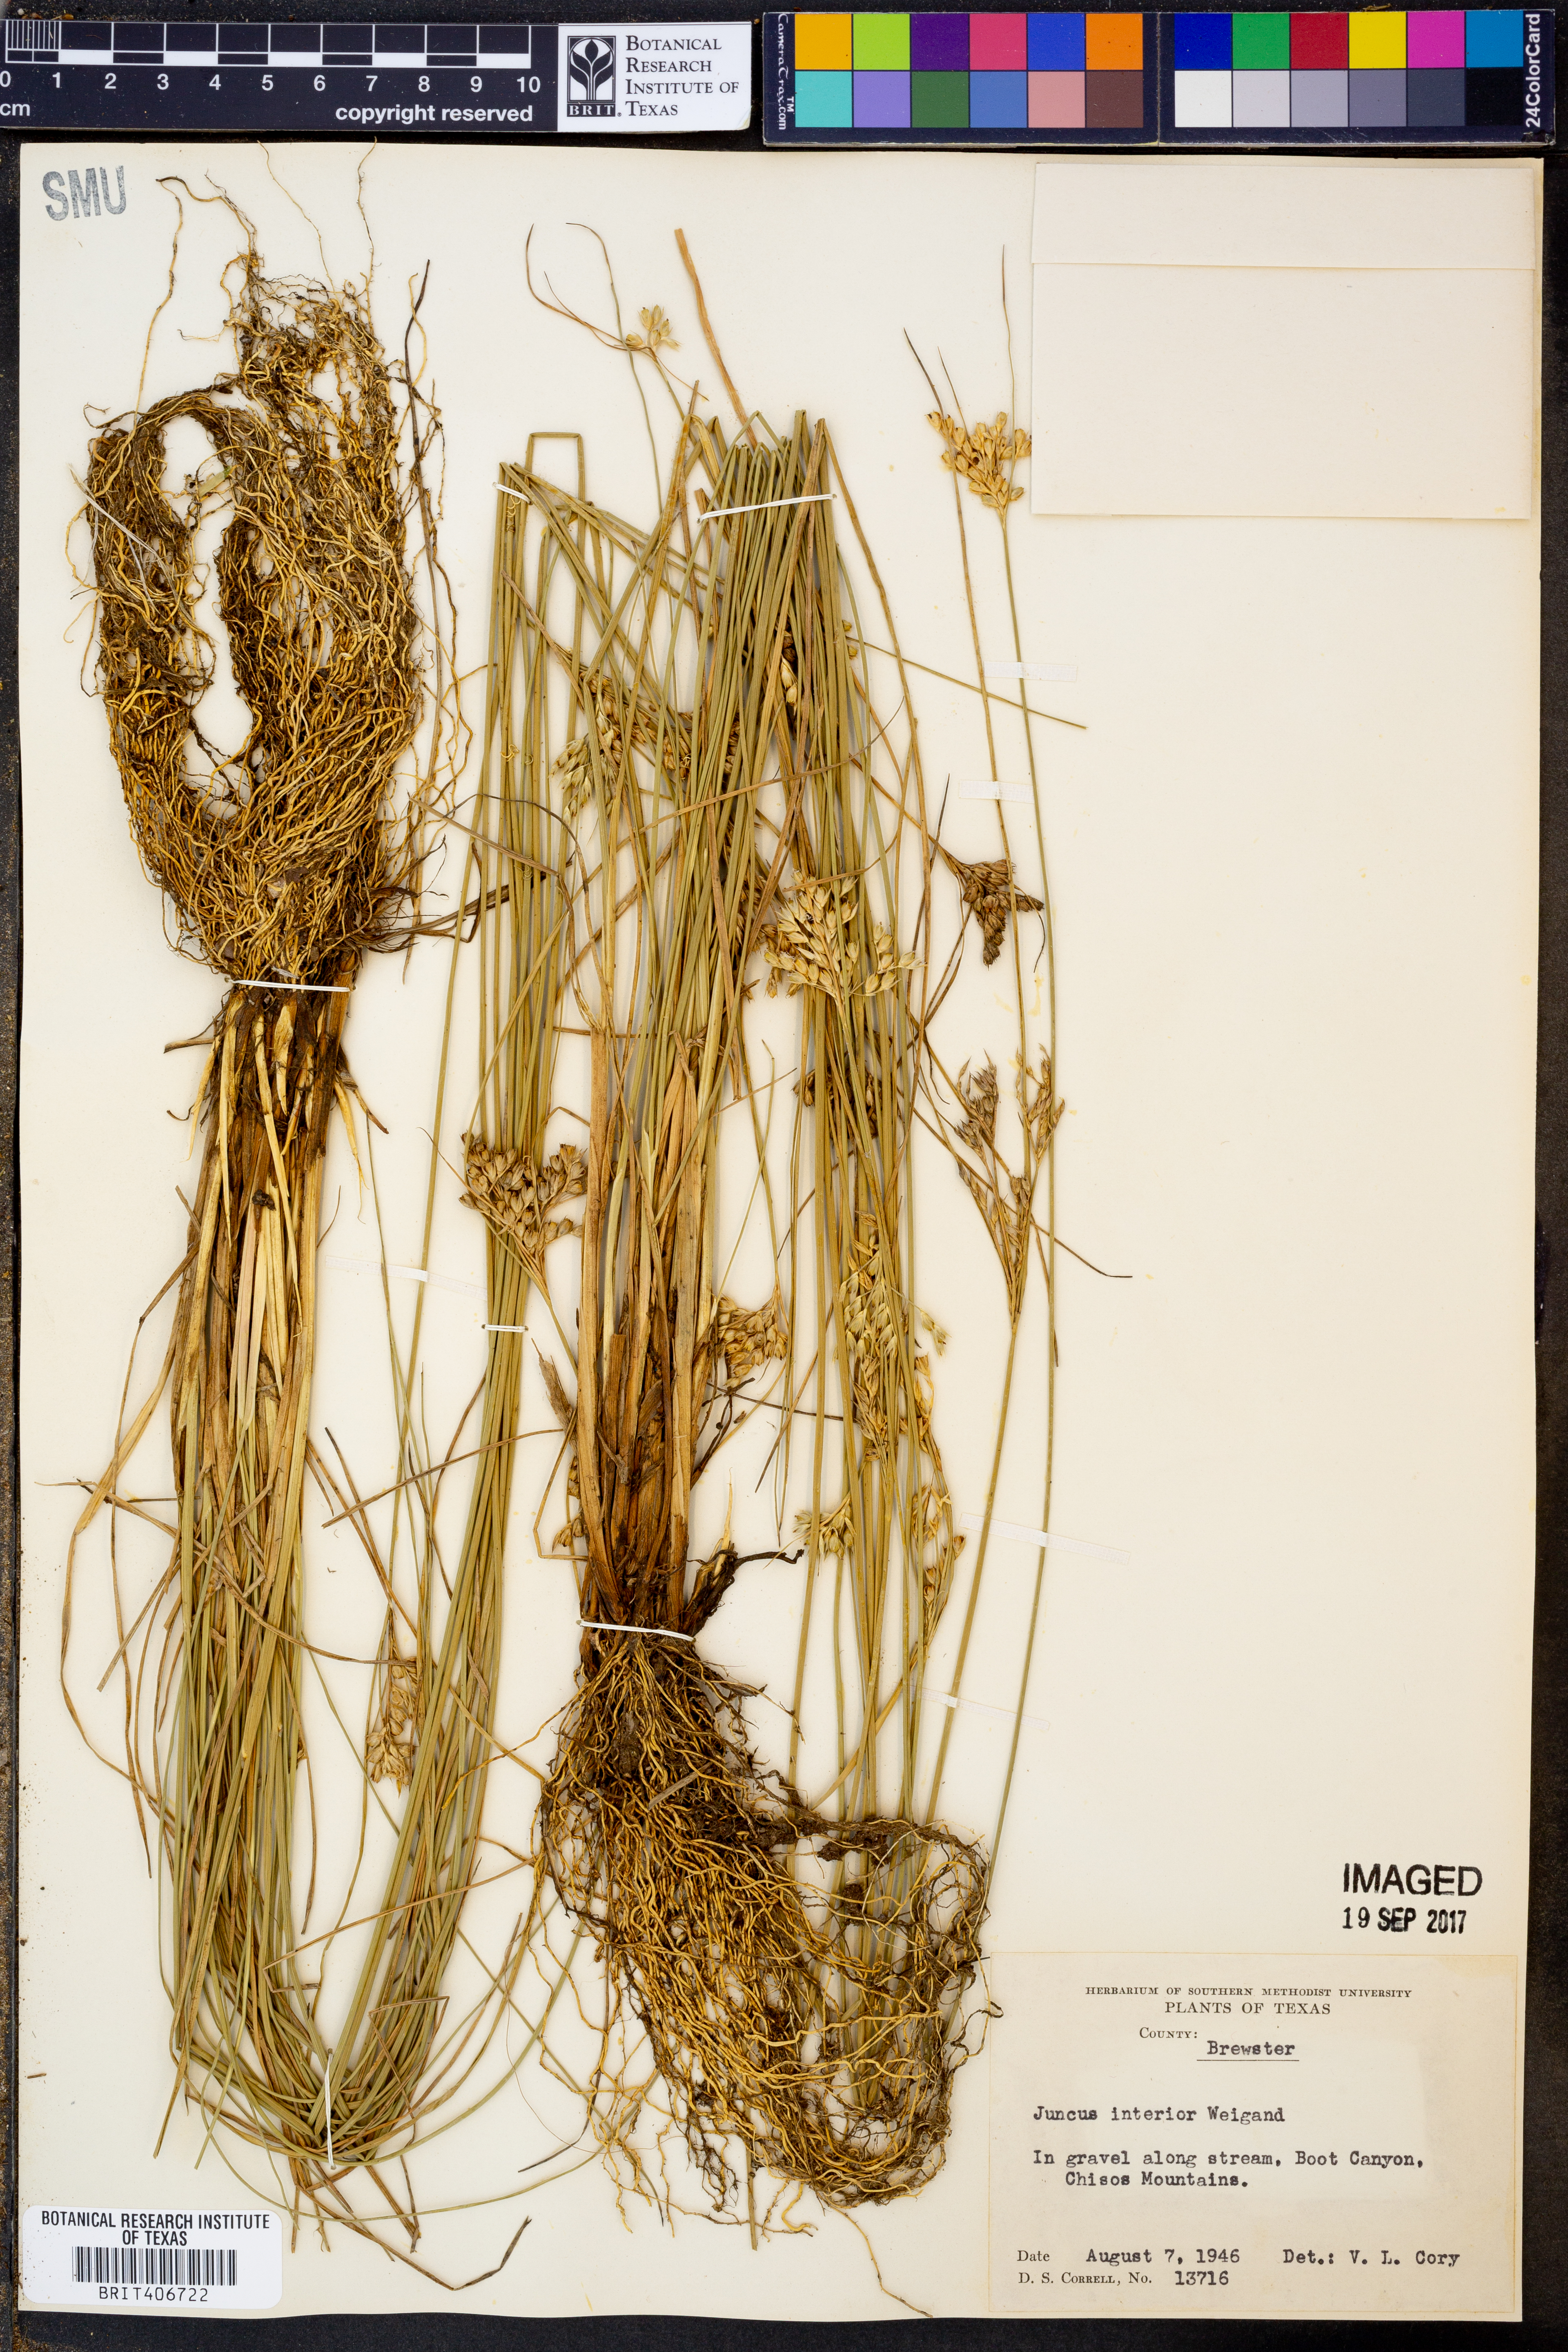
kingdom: Plantae
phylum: Tracheophyta
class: Liliopsida
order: Poales
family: Juncaceae
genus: Juncus
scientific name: Juncus interior
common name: Interior rush
